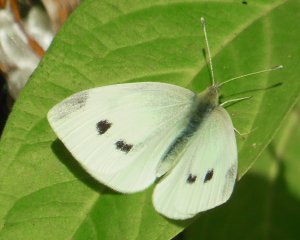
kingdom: Animalia
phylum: Arthropoda
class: Insecta
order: Lepidoptera
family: Pieridae
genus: Pieris
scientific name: Pieris rapae
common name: Cabbage White
